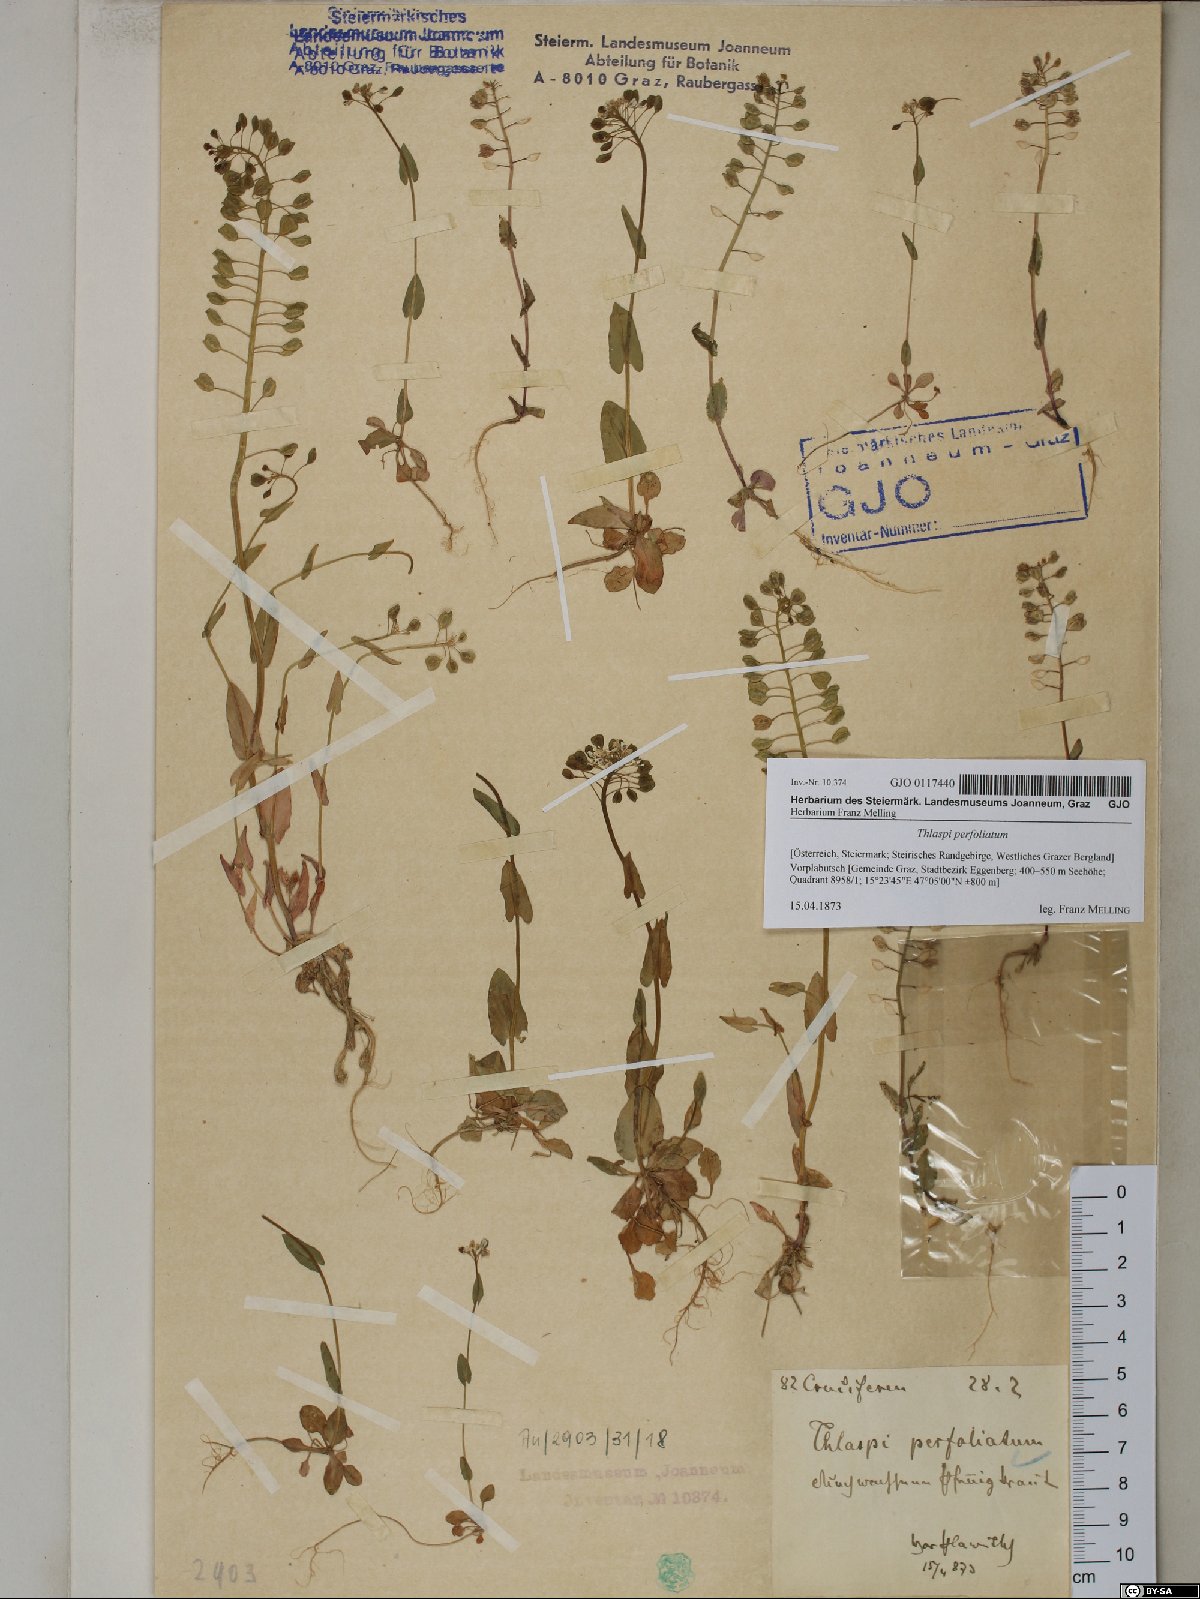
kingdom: Plantae
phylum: Tracheophyta
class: Magnoliopsida
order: Brassicales
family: Brassicaceae
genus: Noccaea
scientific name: Noccaea perfoliata
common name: Perfoliate pennycress
